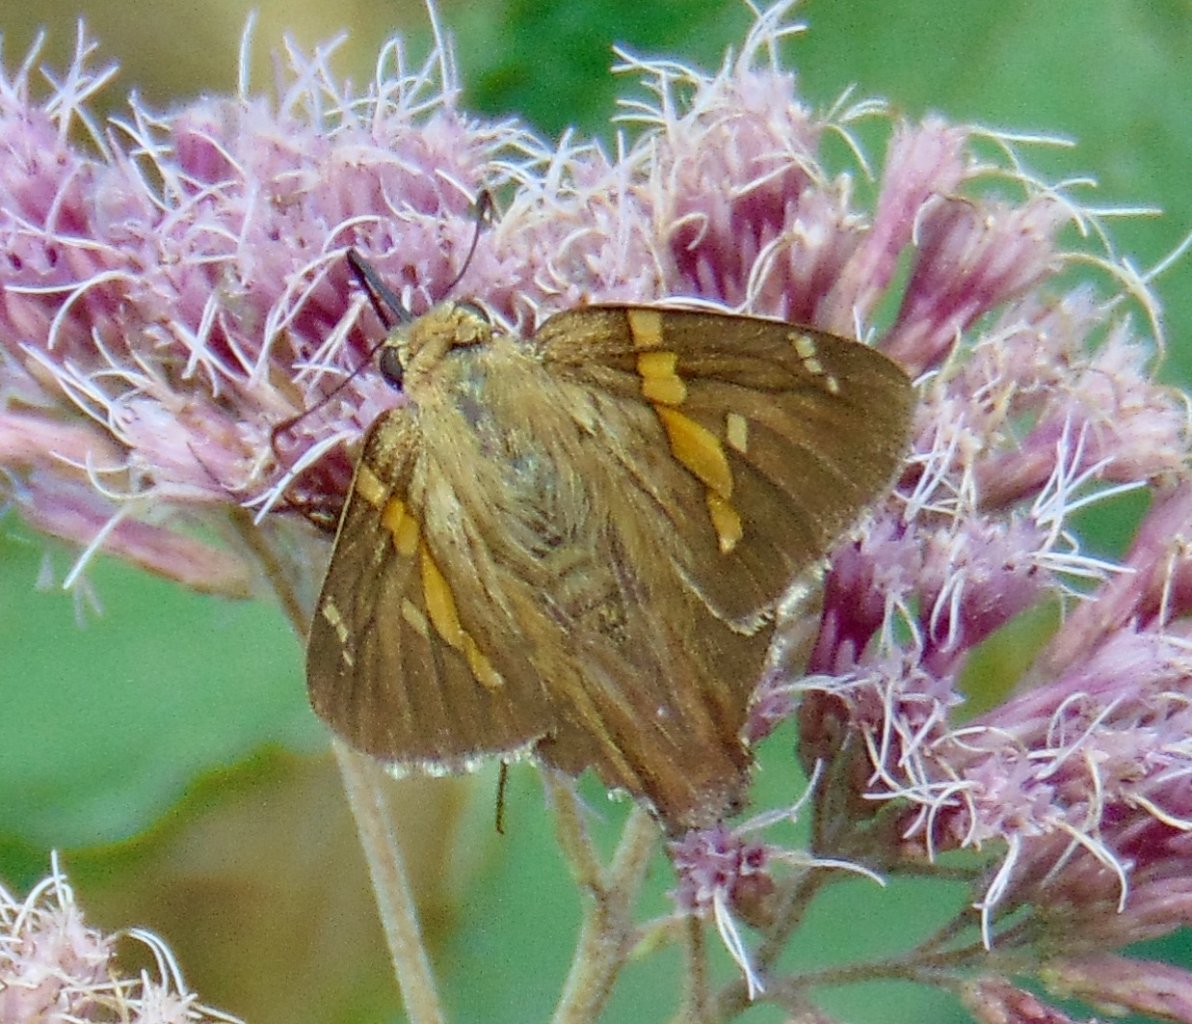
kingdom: Animalia
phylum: Arthropoda
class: Insecta
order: Lepidoptera
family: Hesperiidae
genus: Epargyreus
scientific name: Epargyreus clarus
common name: Silver-spotted Skipper
